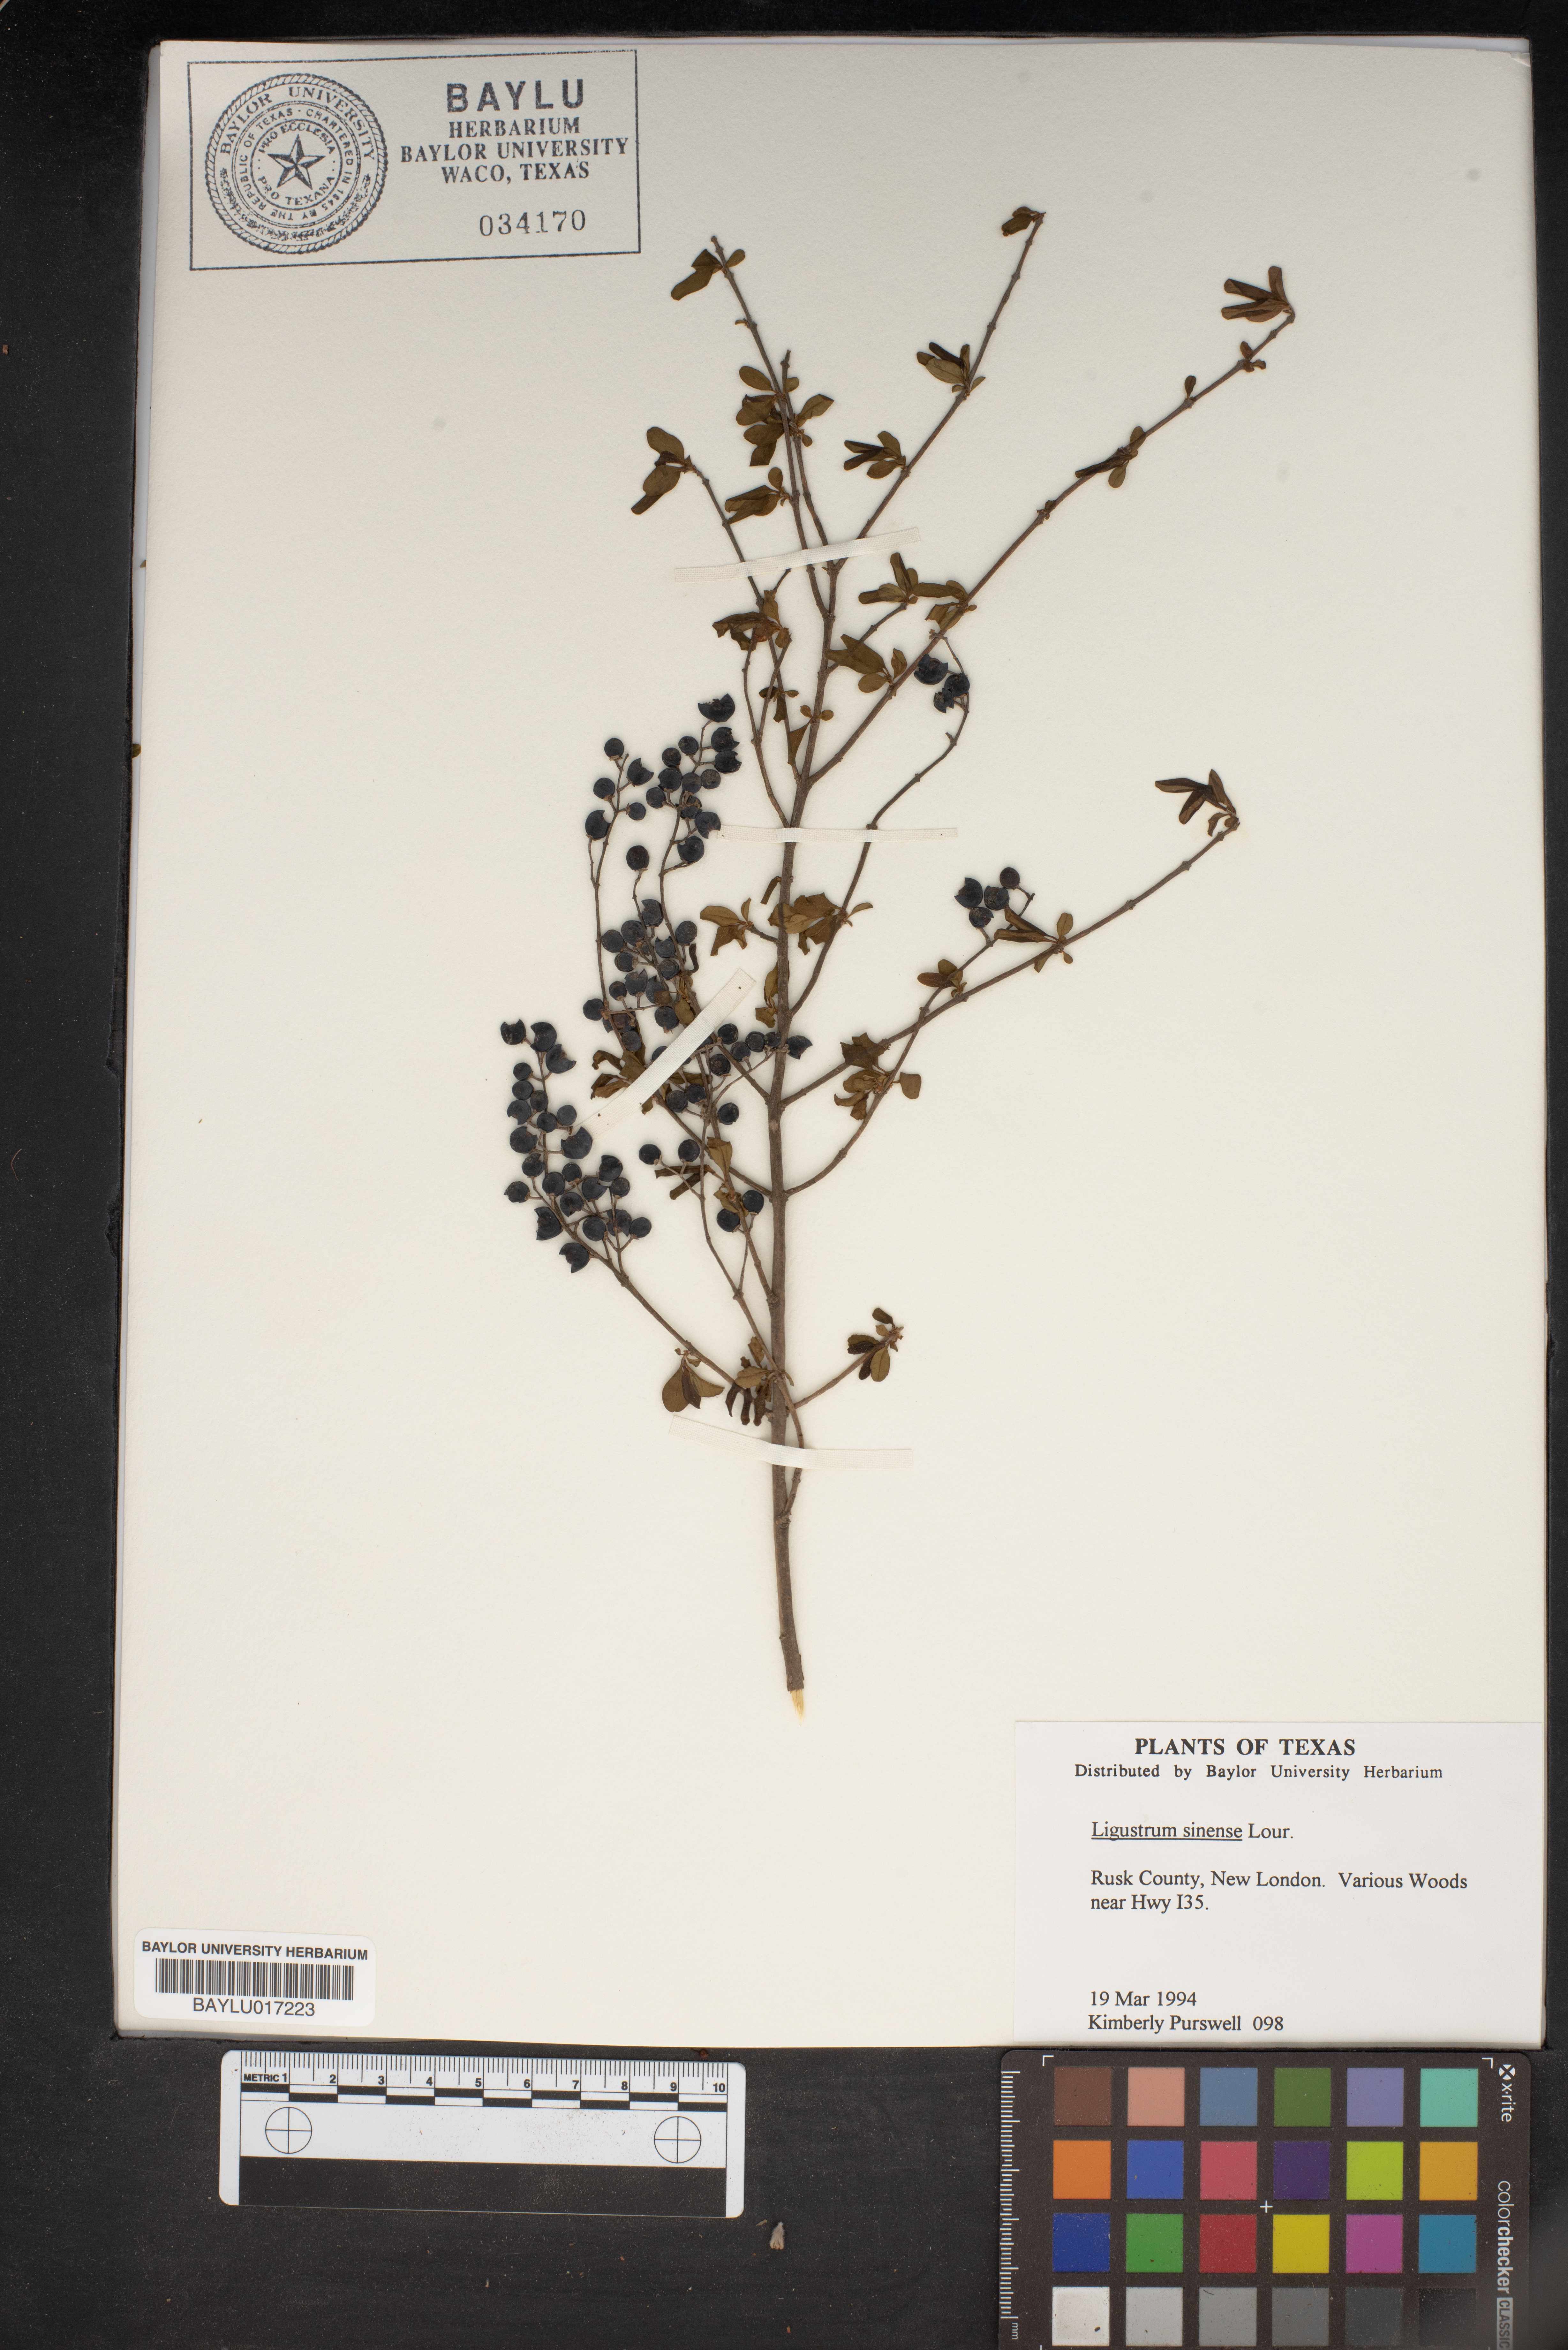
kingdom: Plantae
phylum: Tracheophyta
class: Magnoliopsida
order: Lamiales
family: Oleaceae
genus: Ligustrum
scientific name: Ligustrum sinense
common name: Chinese privet
